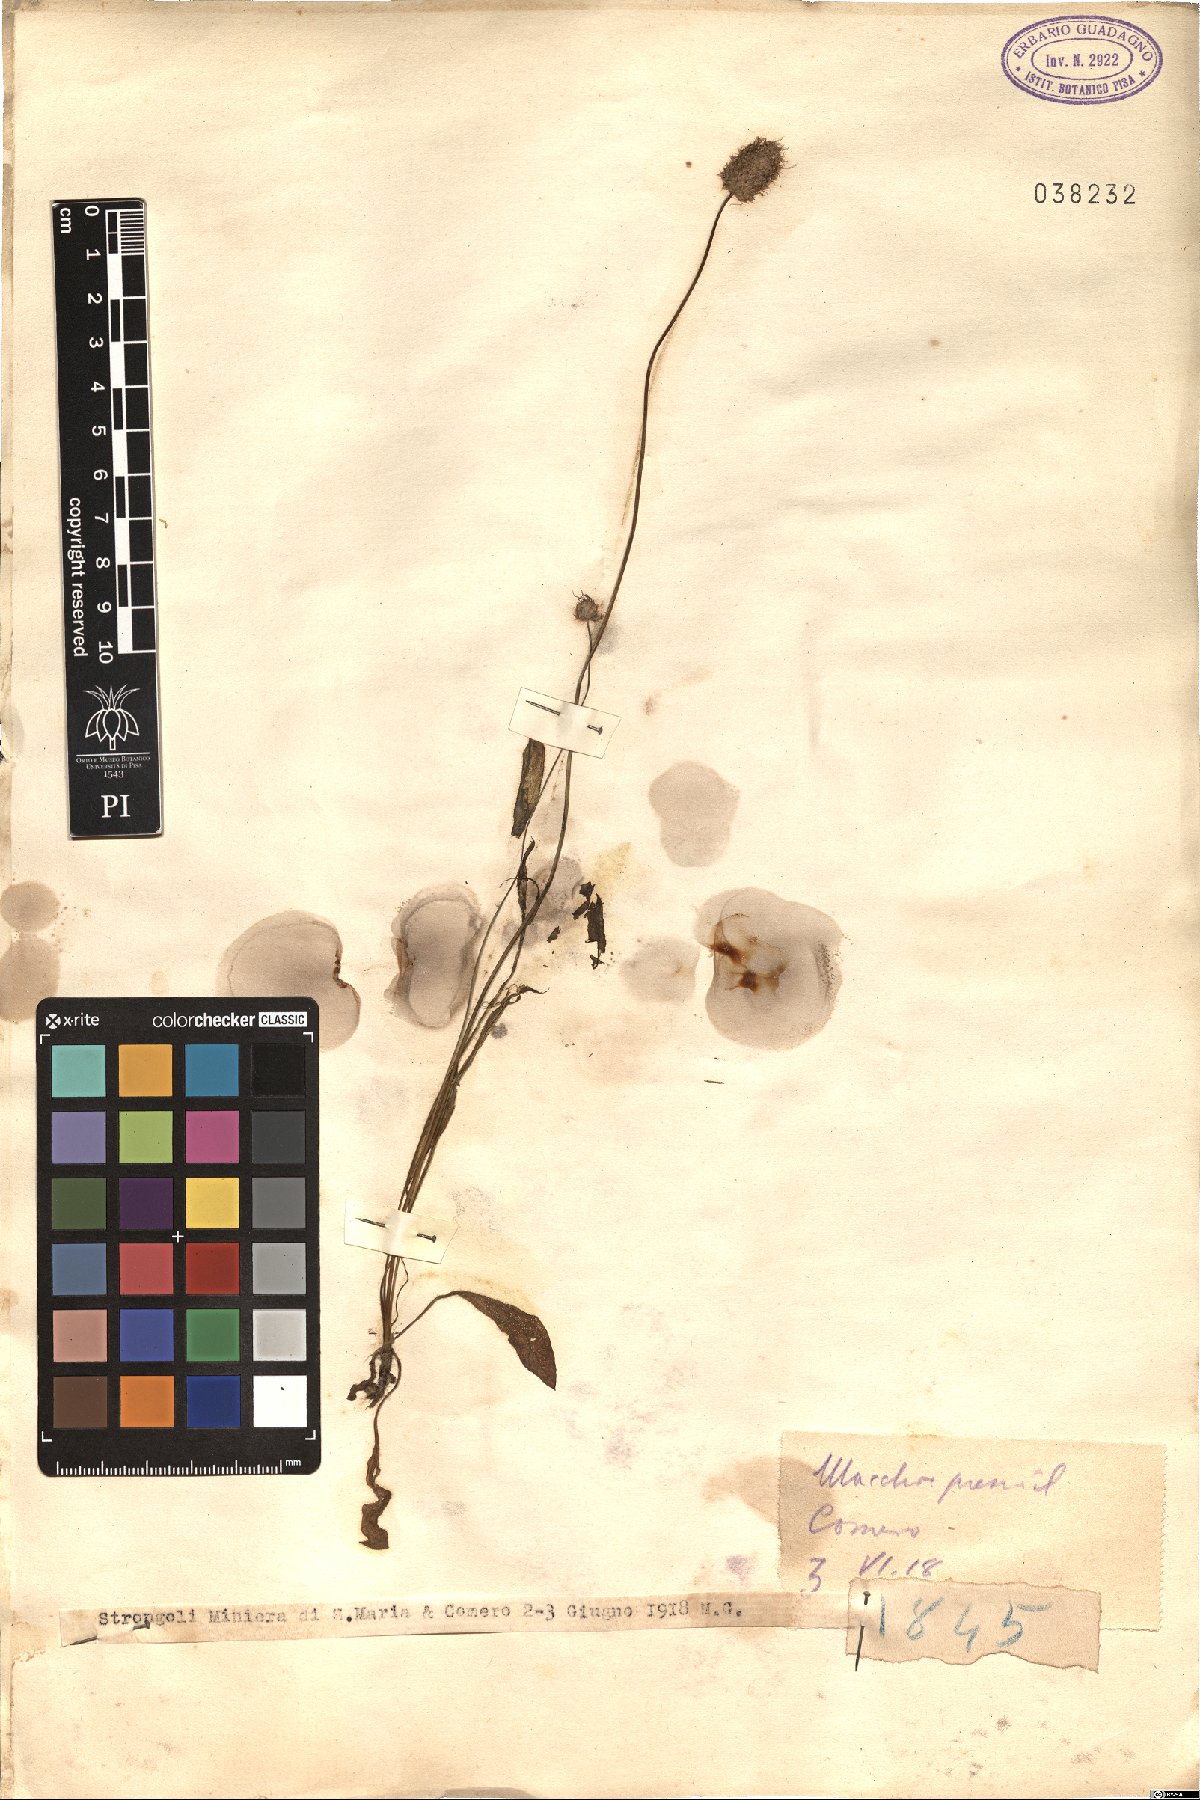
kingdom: Plantae
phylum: Tracheophyta
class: Magnoliopsida
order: Lamiales
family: Plantaginaceae
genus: Plantago
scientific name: Plantago
